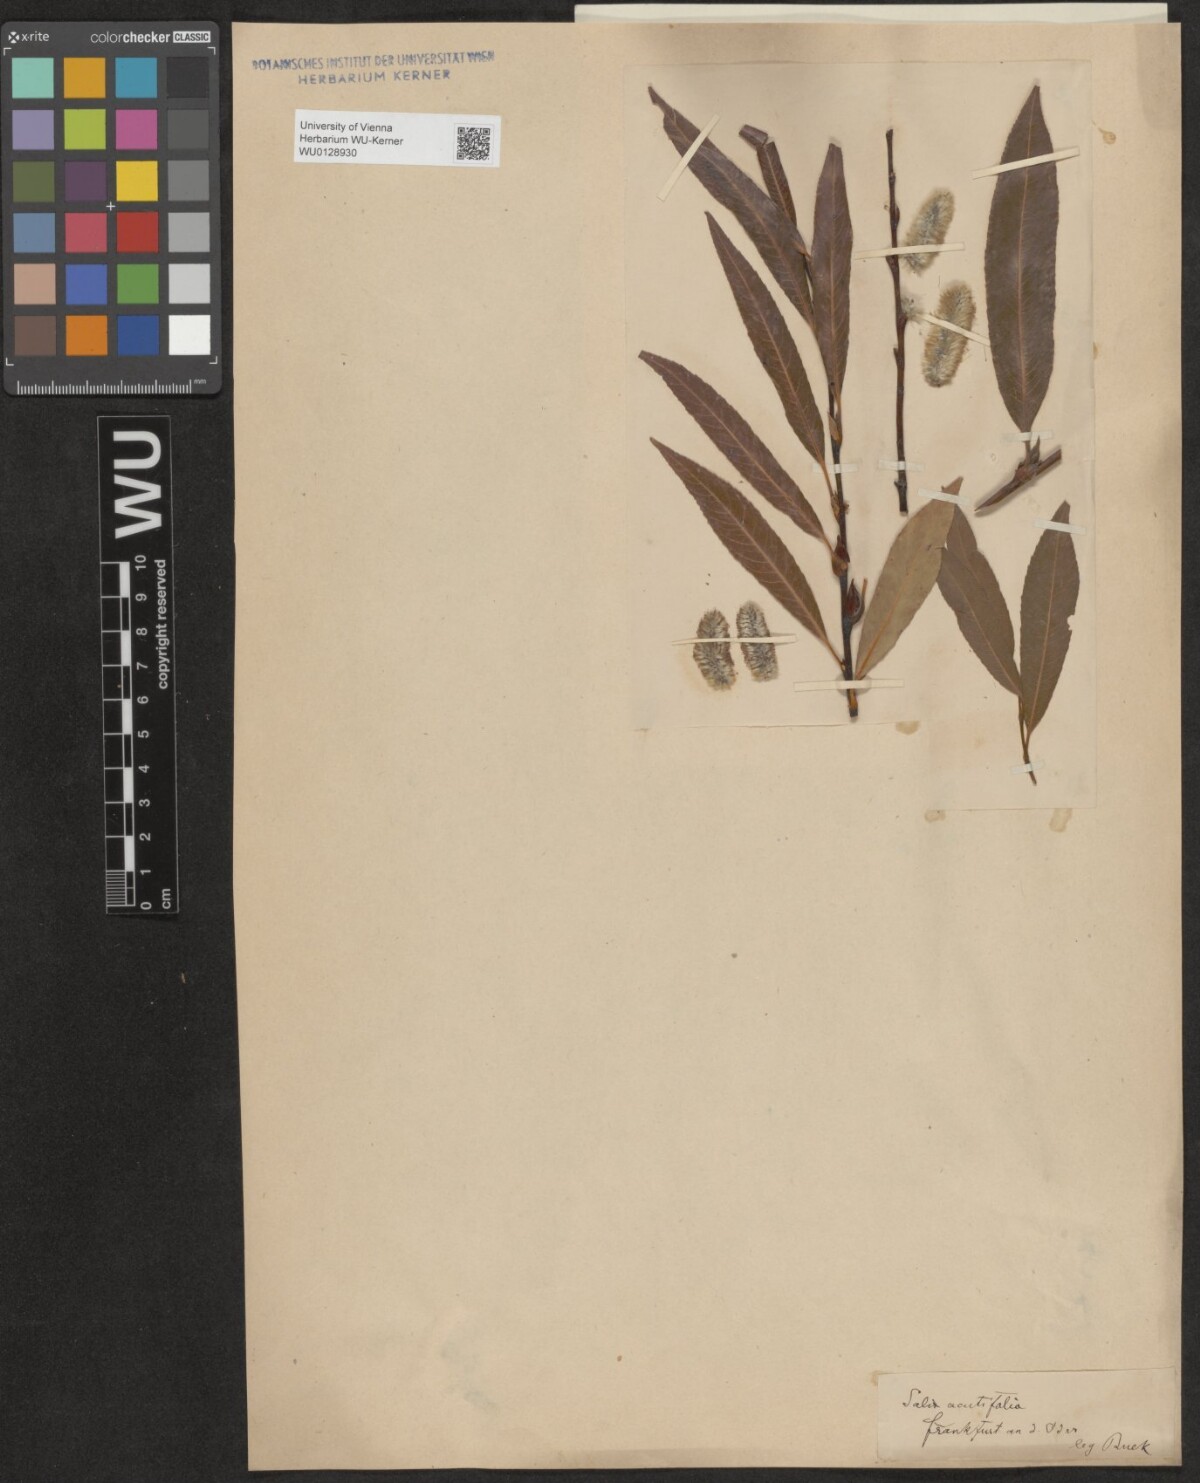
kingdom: Plantae
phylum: Tracheophyta
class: Magnoliopsida
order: Malpighiales
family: Salicaceae
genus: Salix
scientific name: Salix daphnoides
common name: European violet-willow
